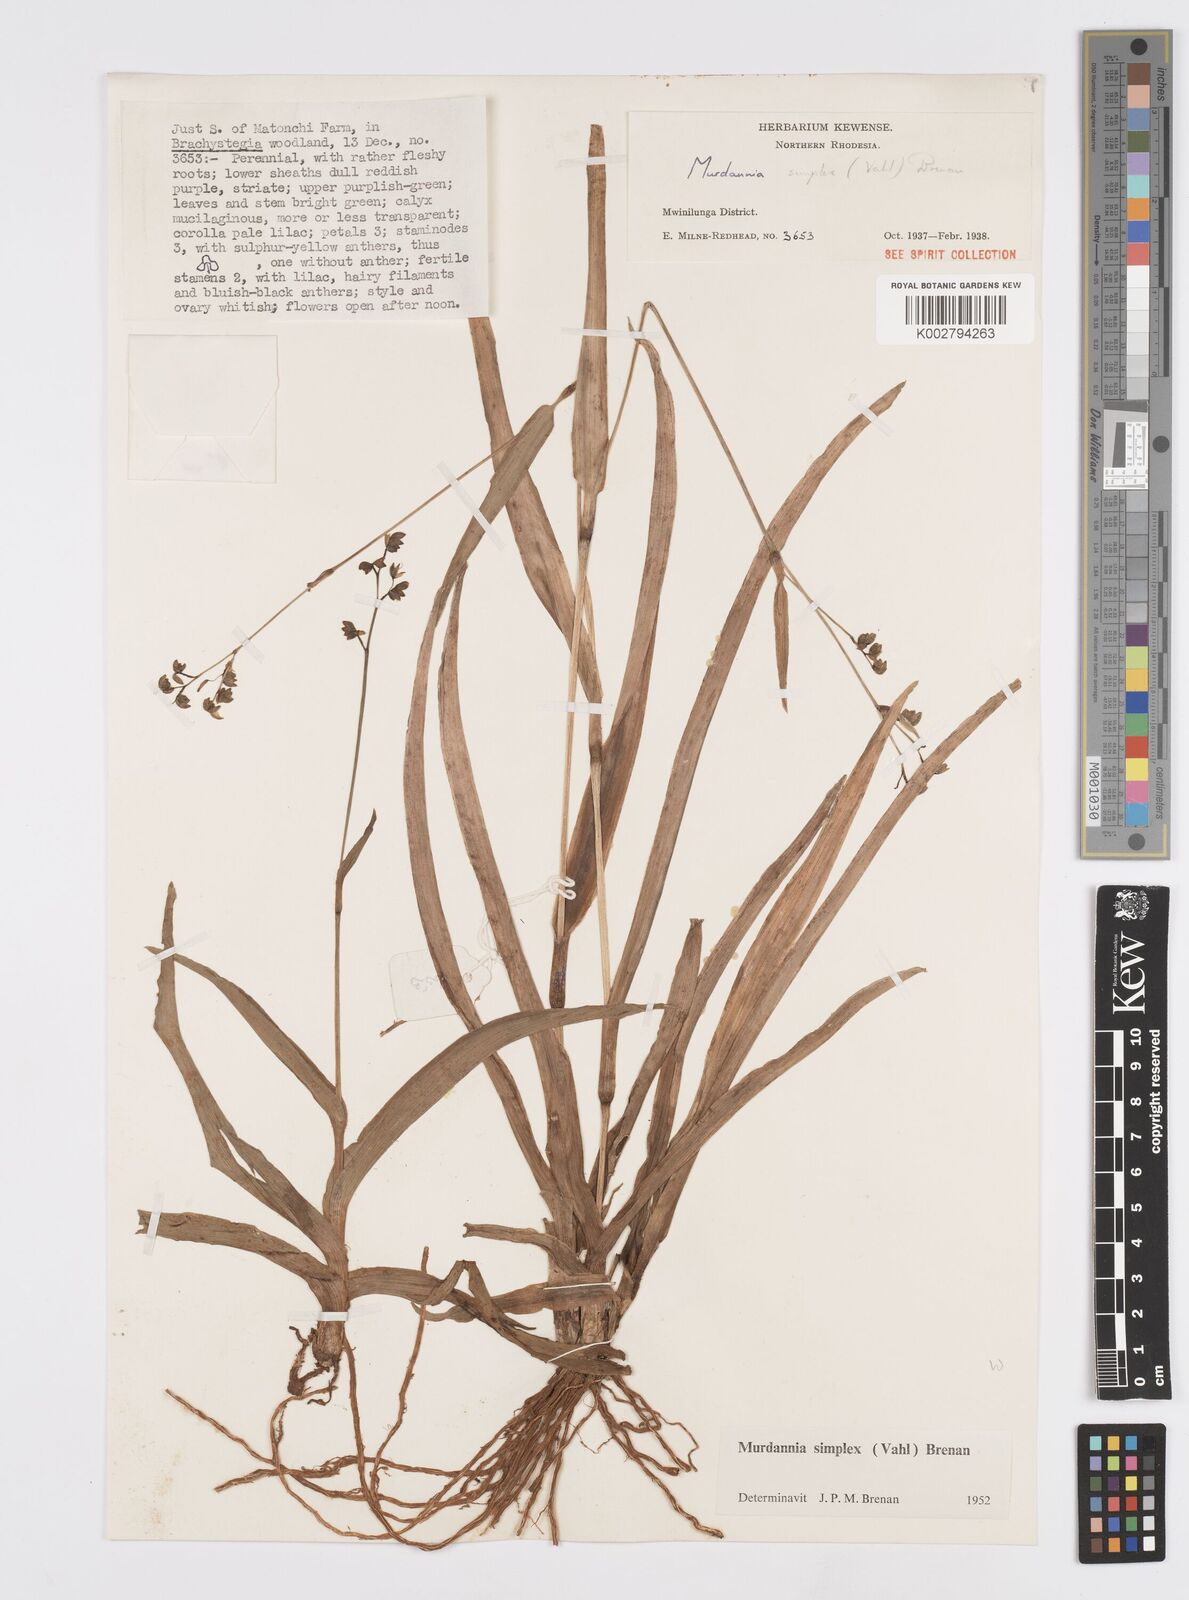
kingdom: Plantae
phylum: Tracheophyta
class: Liliopsida
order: Commelinales
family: Commelinaceae
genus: Murdannia
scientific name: Murdannia simplex
